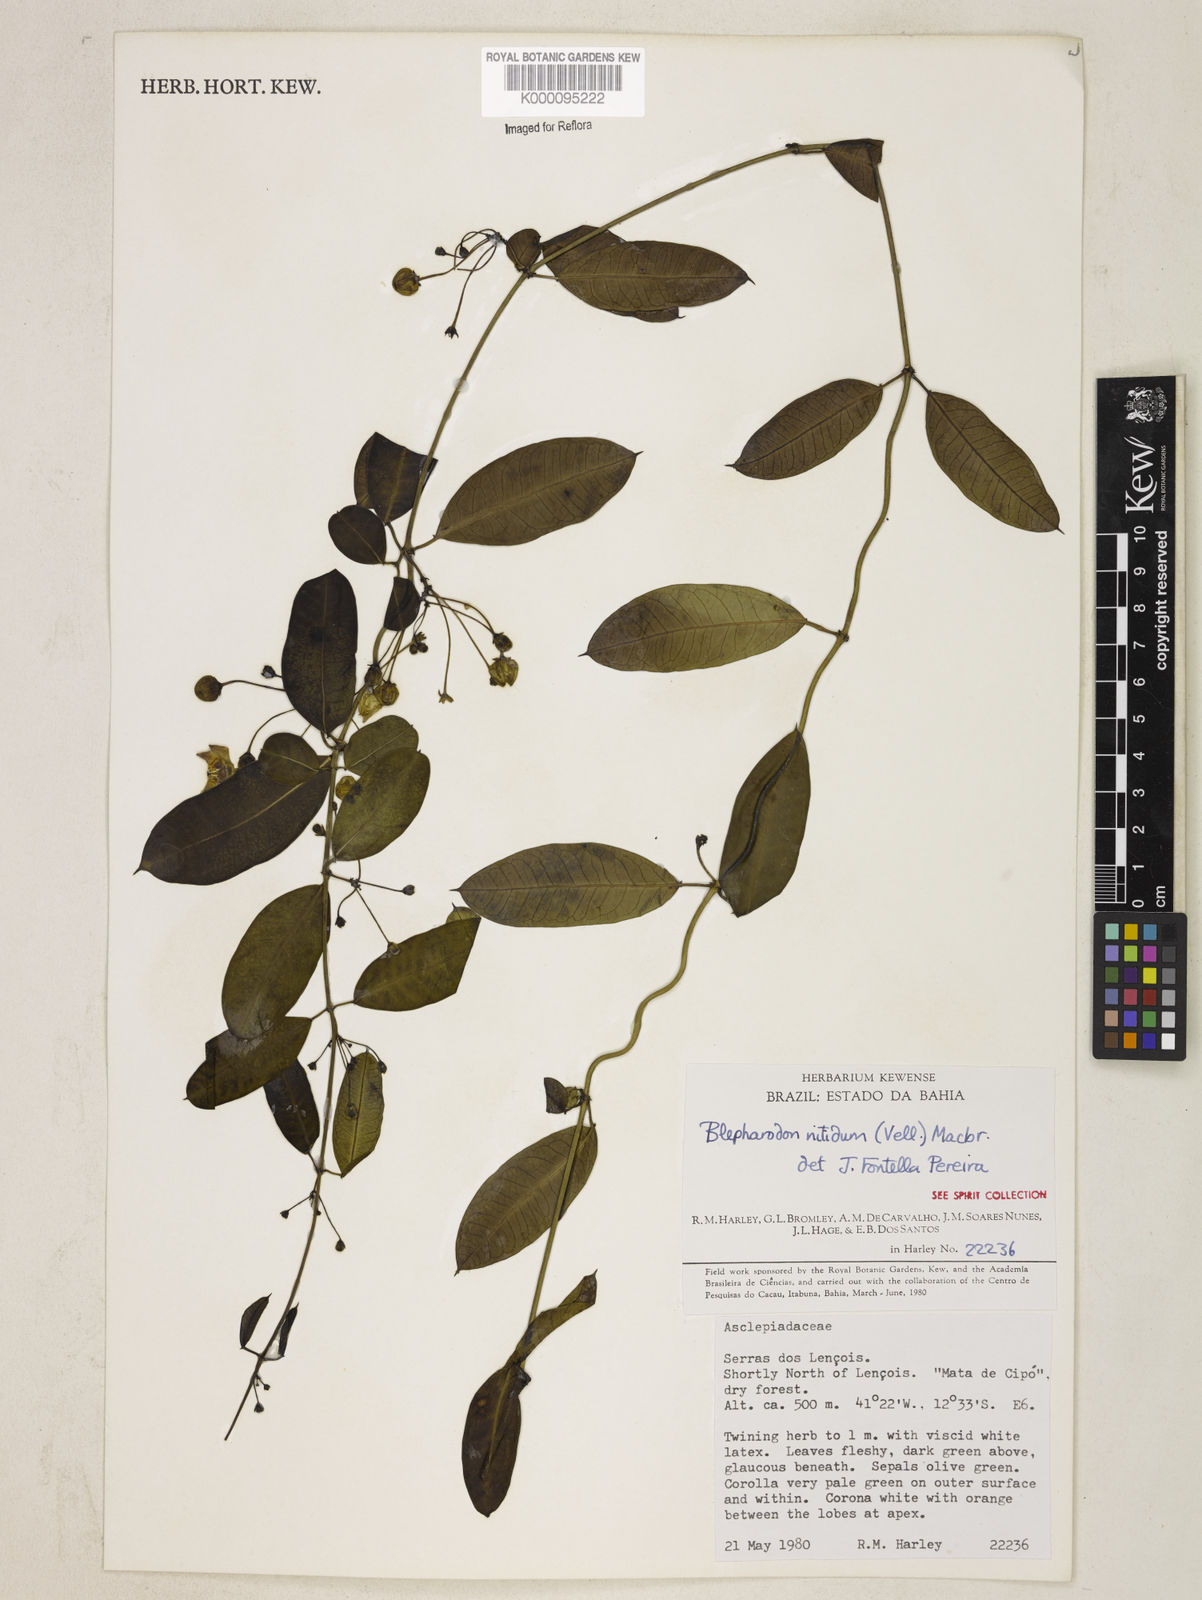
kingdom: Plantae
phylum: Tracheophyta
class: Magnoliopsida
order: Gentianales
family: Apocynaceae
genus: Blepharodon
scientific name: Blepharodon pictum
